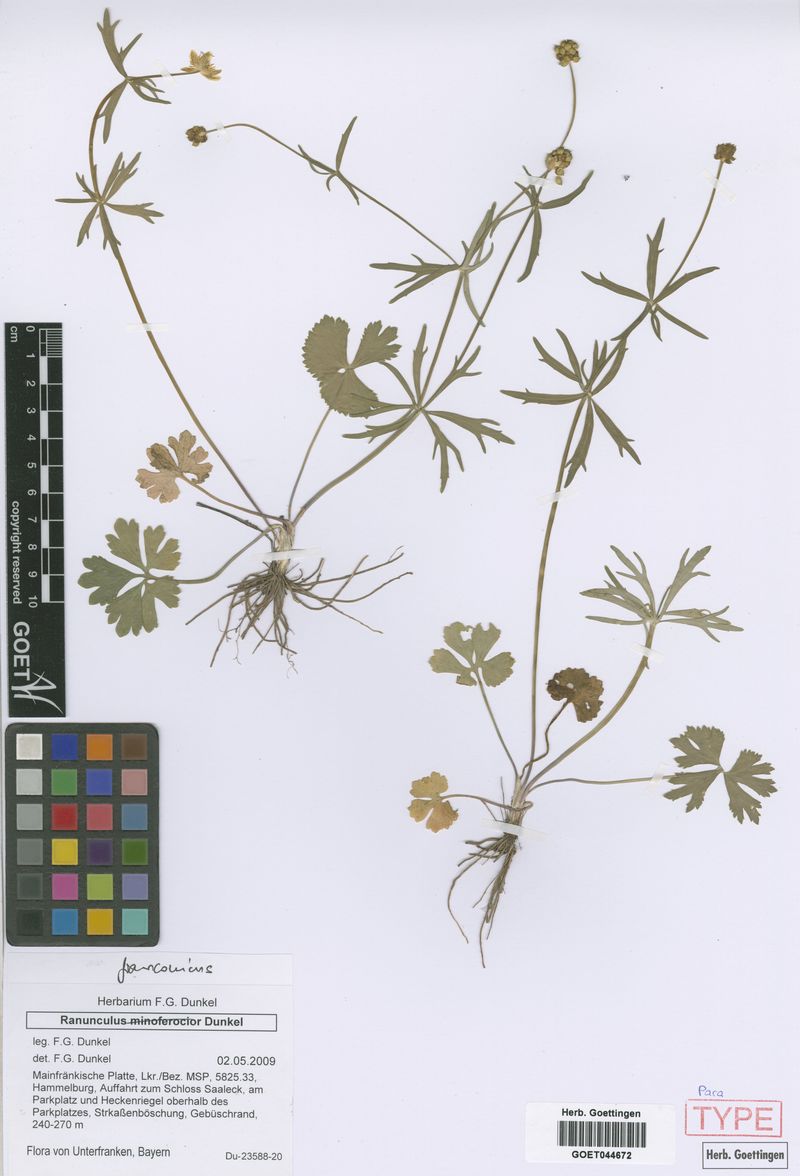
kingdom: Plantae
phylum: Tracheophyta
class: Magnoliopsida
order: Ranunculales
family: Ranunculaceae
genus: Ranunculus
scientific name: Ranunculus franconicus
